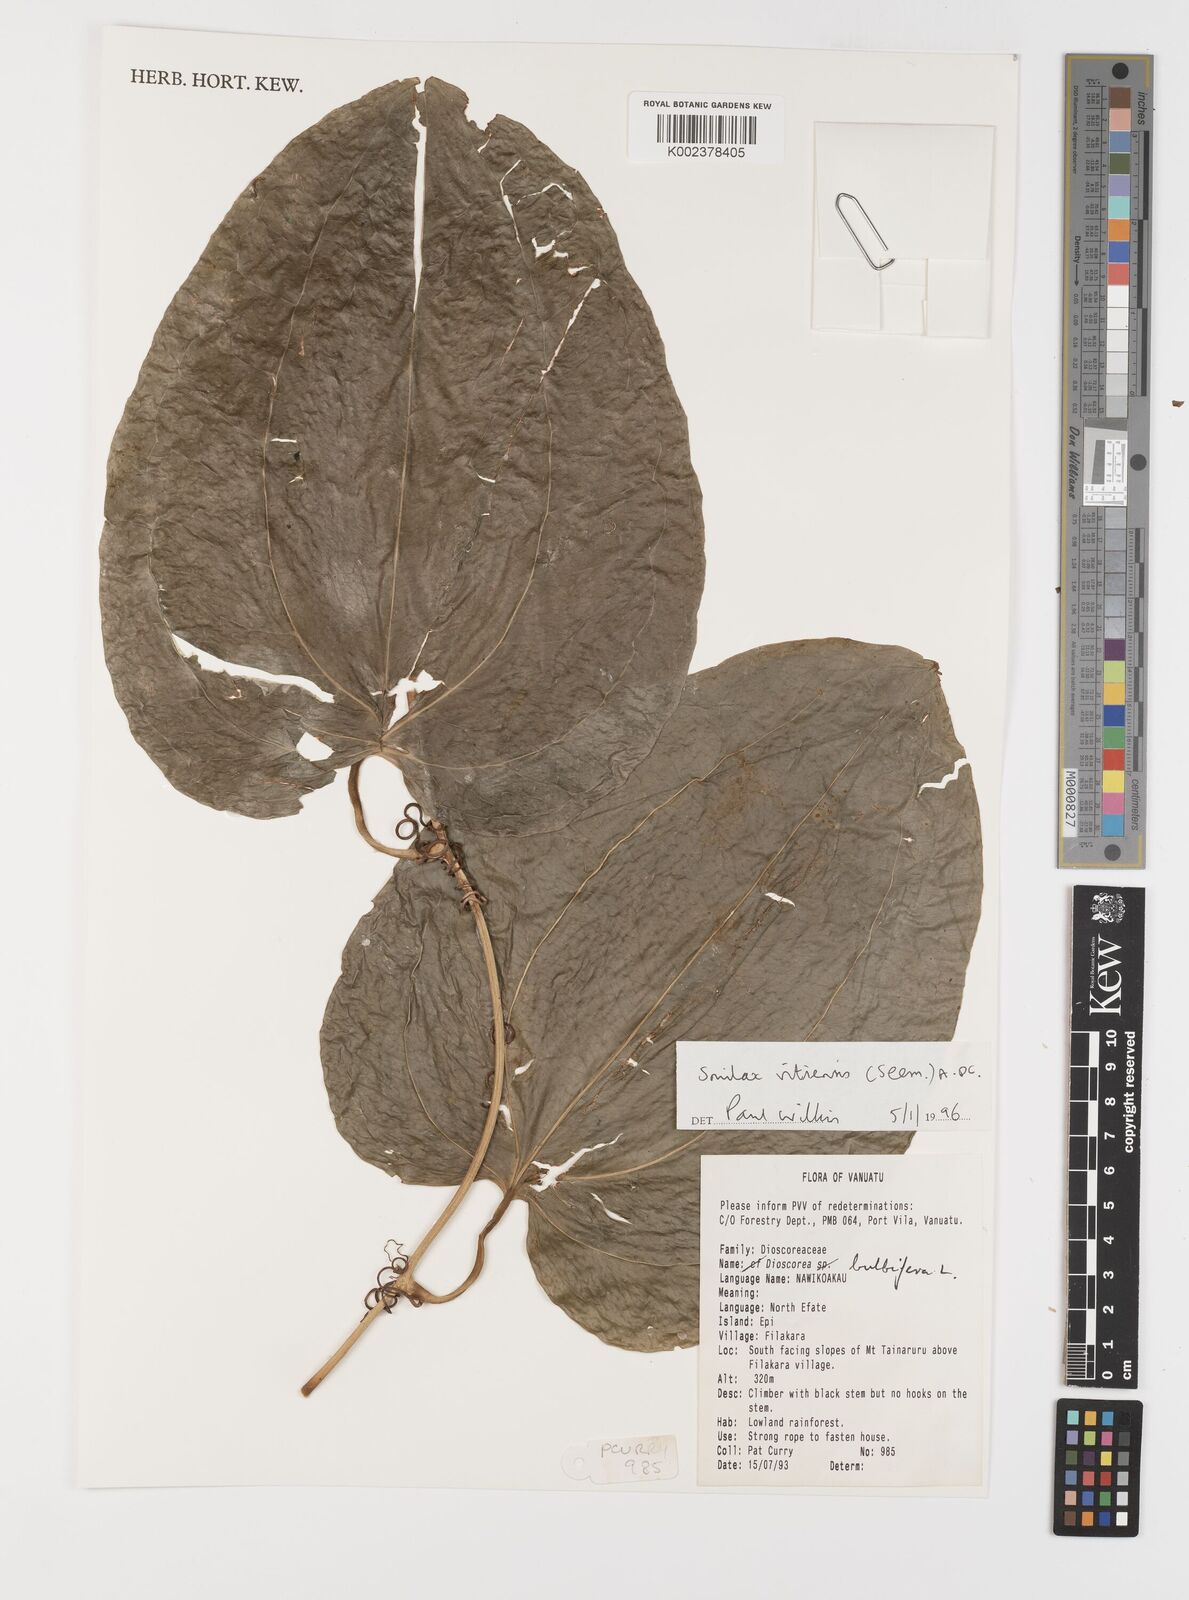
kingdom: Plantae
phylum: Tracheophyta
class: Liliopsida
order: Liliales
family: Smilacaceae
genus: Smilax
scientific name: Smilax vitiensis
